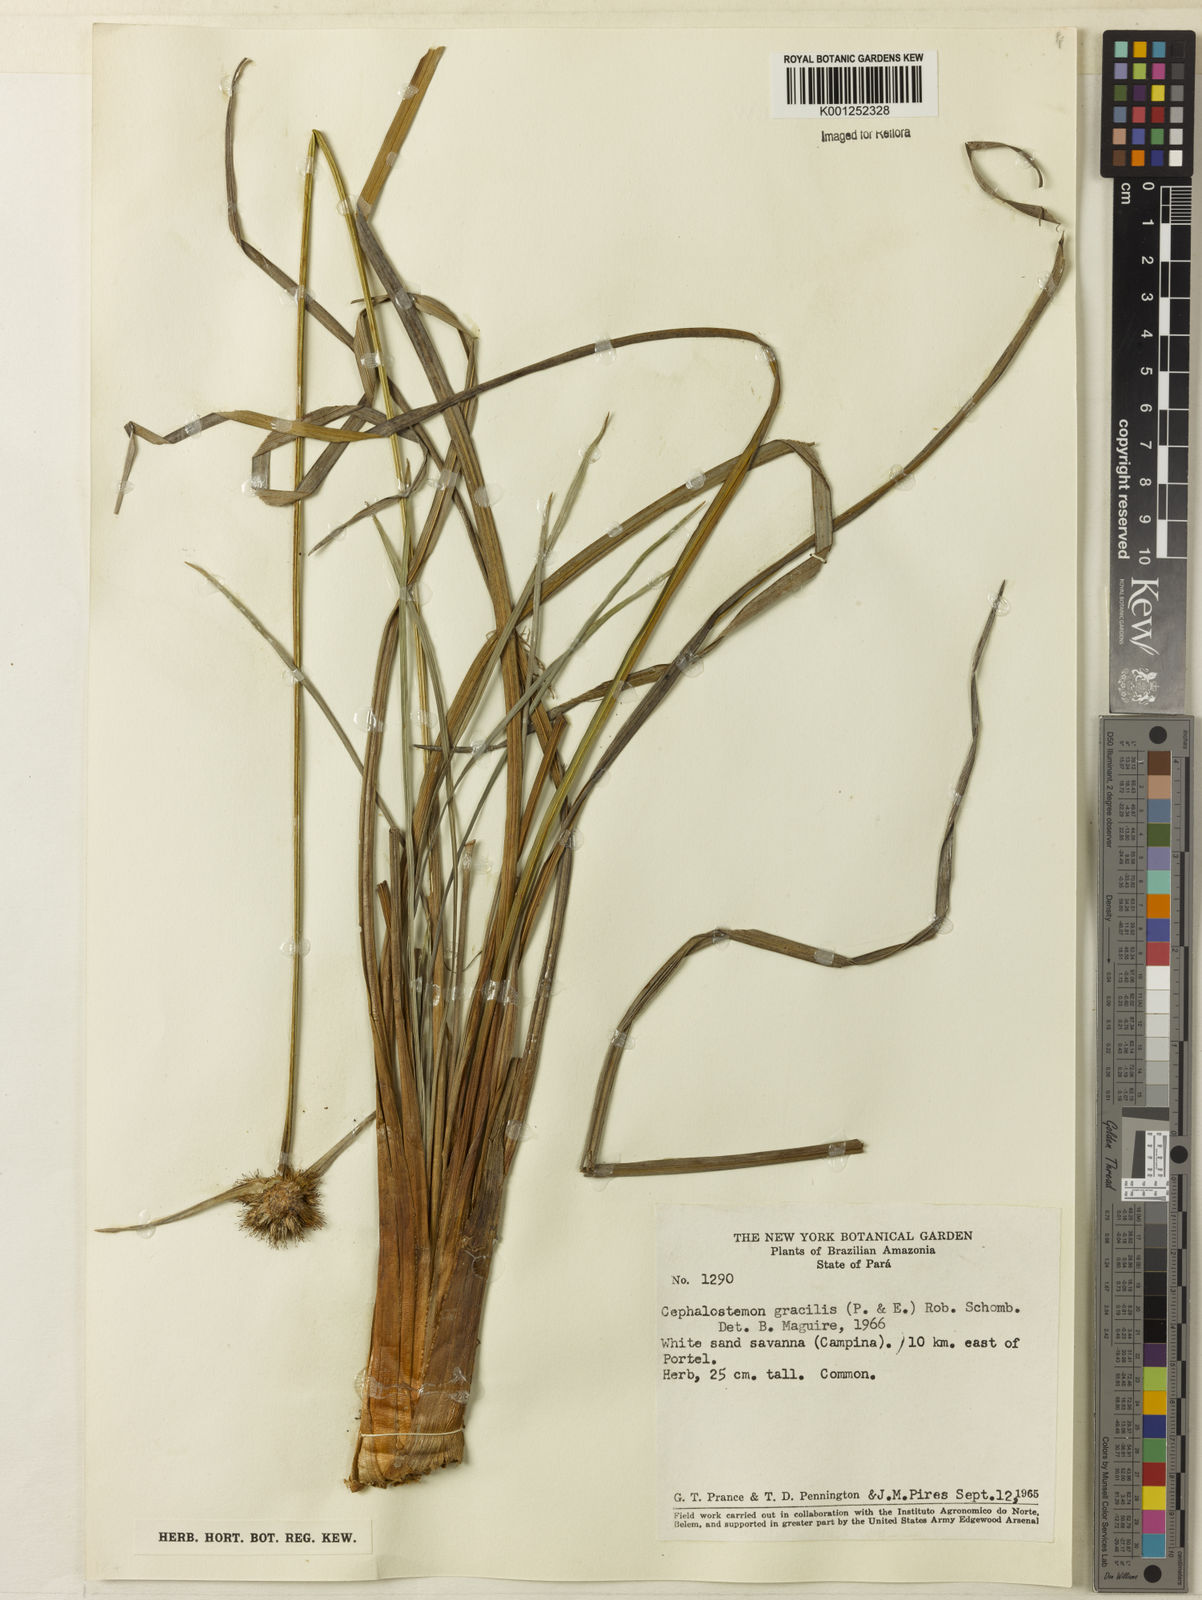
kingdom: Plantae
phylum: Tracheophyta
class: Liliopsida
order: Poales
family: Rapateaceae
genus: Cephalostemon
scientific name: Cephalostemon gracilis
